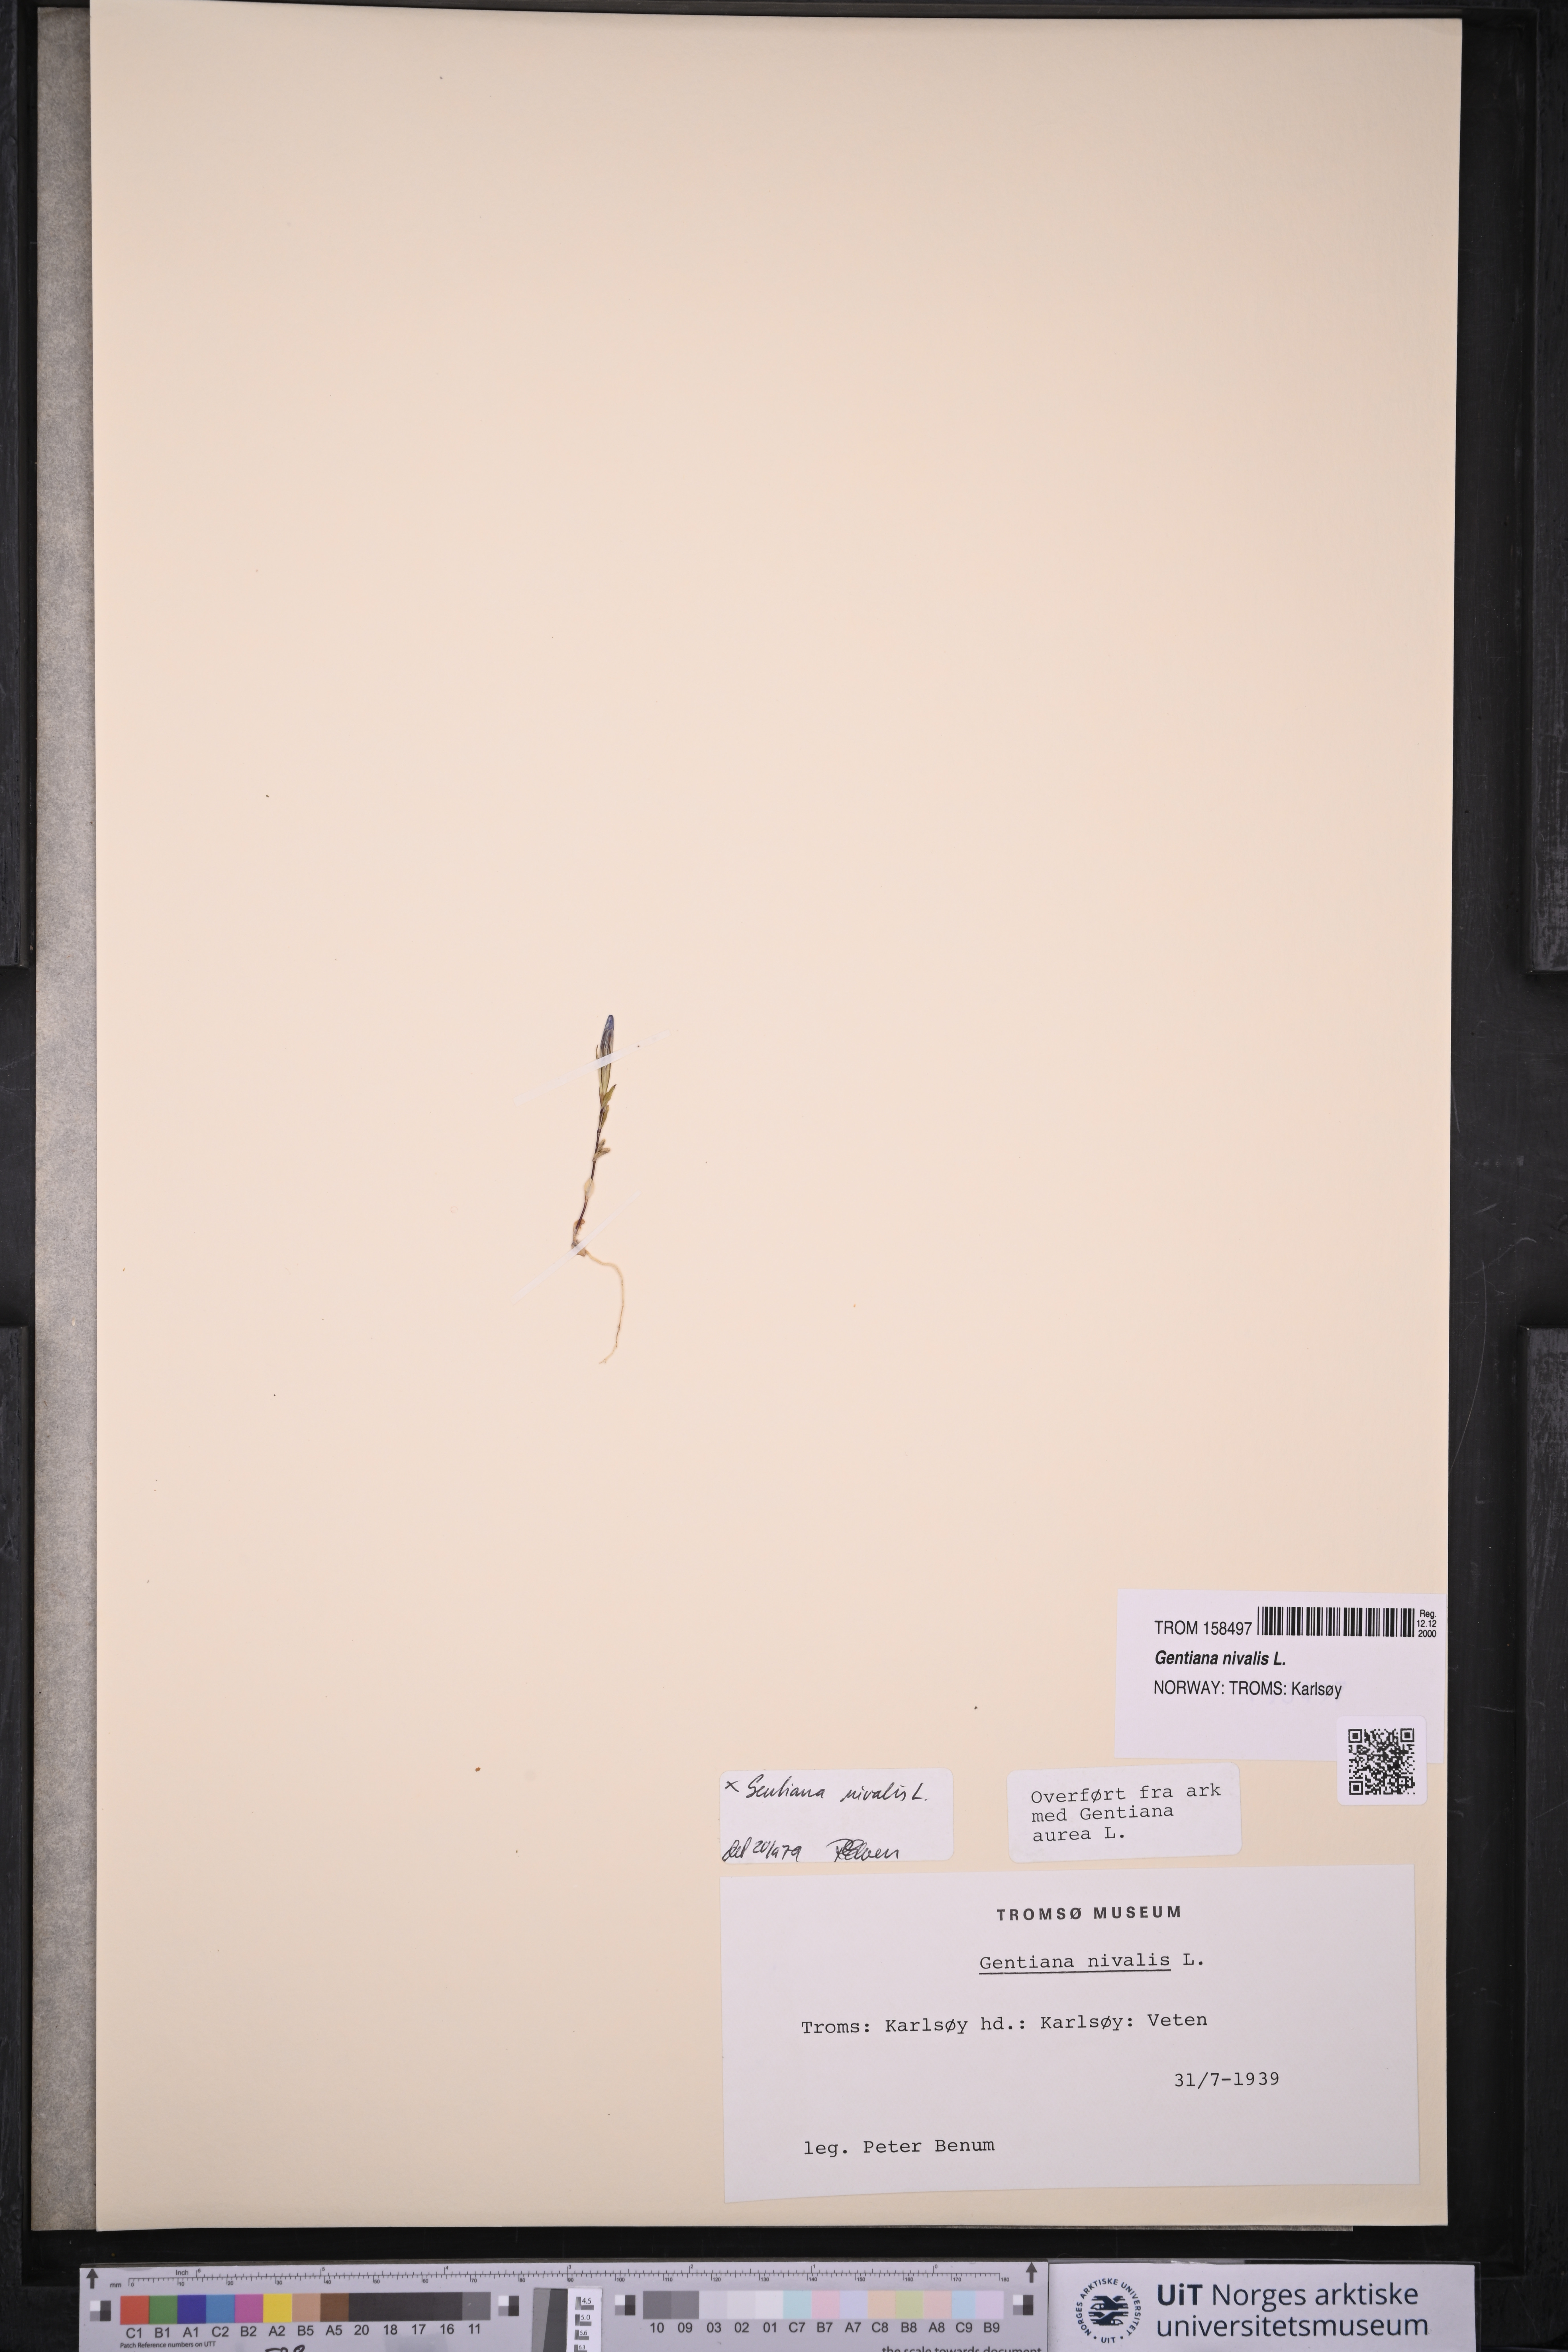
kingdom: Plantae
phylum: Tracheophyta
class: Magnoliopsida
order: Gentianales
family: Gentianaceae
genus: Gentiana
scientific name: Gentiana nivalis
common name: Alpine gentian
